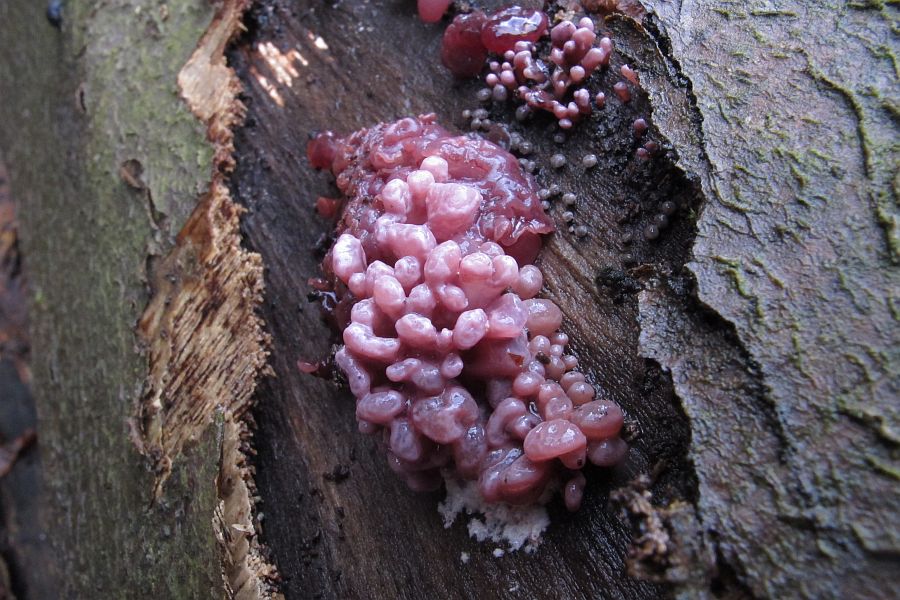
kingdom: Fungi
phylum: Ascomycota
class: Leotiomycetes
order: Helotiales
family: Gelatinodiscaceae
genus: Ascocoryne
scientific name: Ascocoryne sarcoides
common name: rødlilla sejskive
